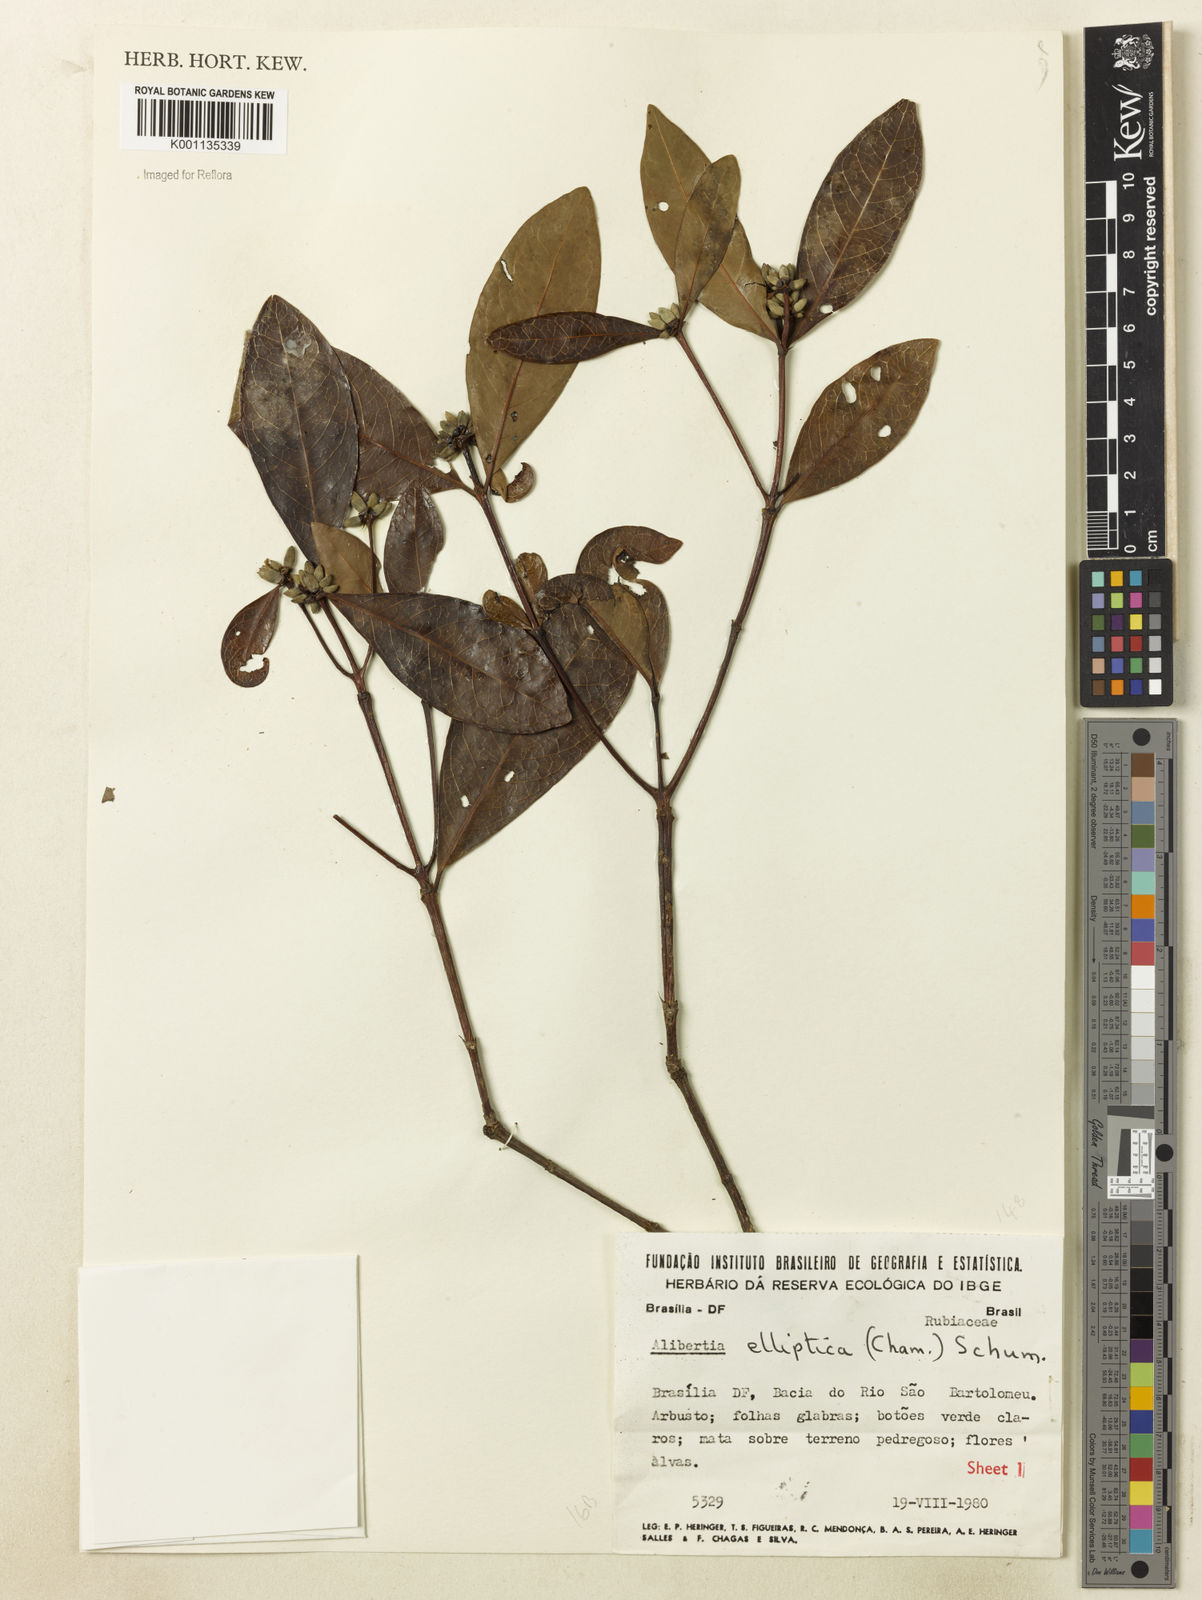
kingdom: Plantae
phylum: Tracheophyta
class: Magnoliopsida
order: Gentianales
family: Rubiaceae
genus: Cordiera
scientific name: Cordiera elliptica
